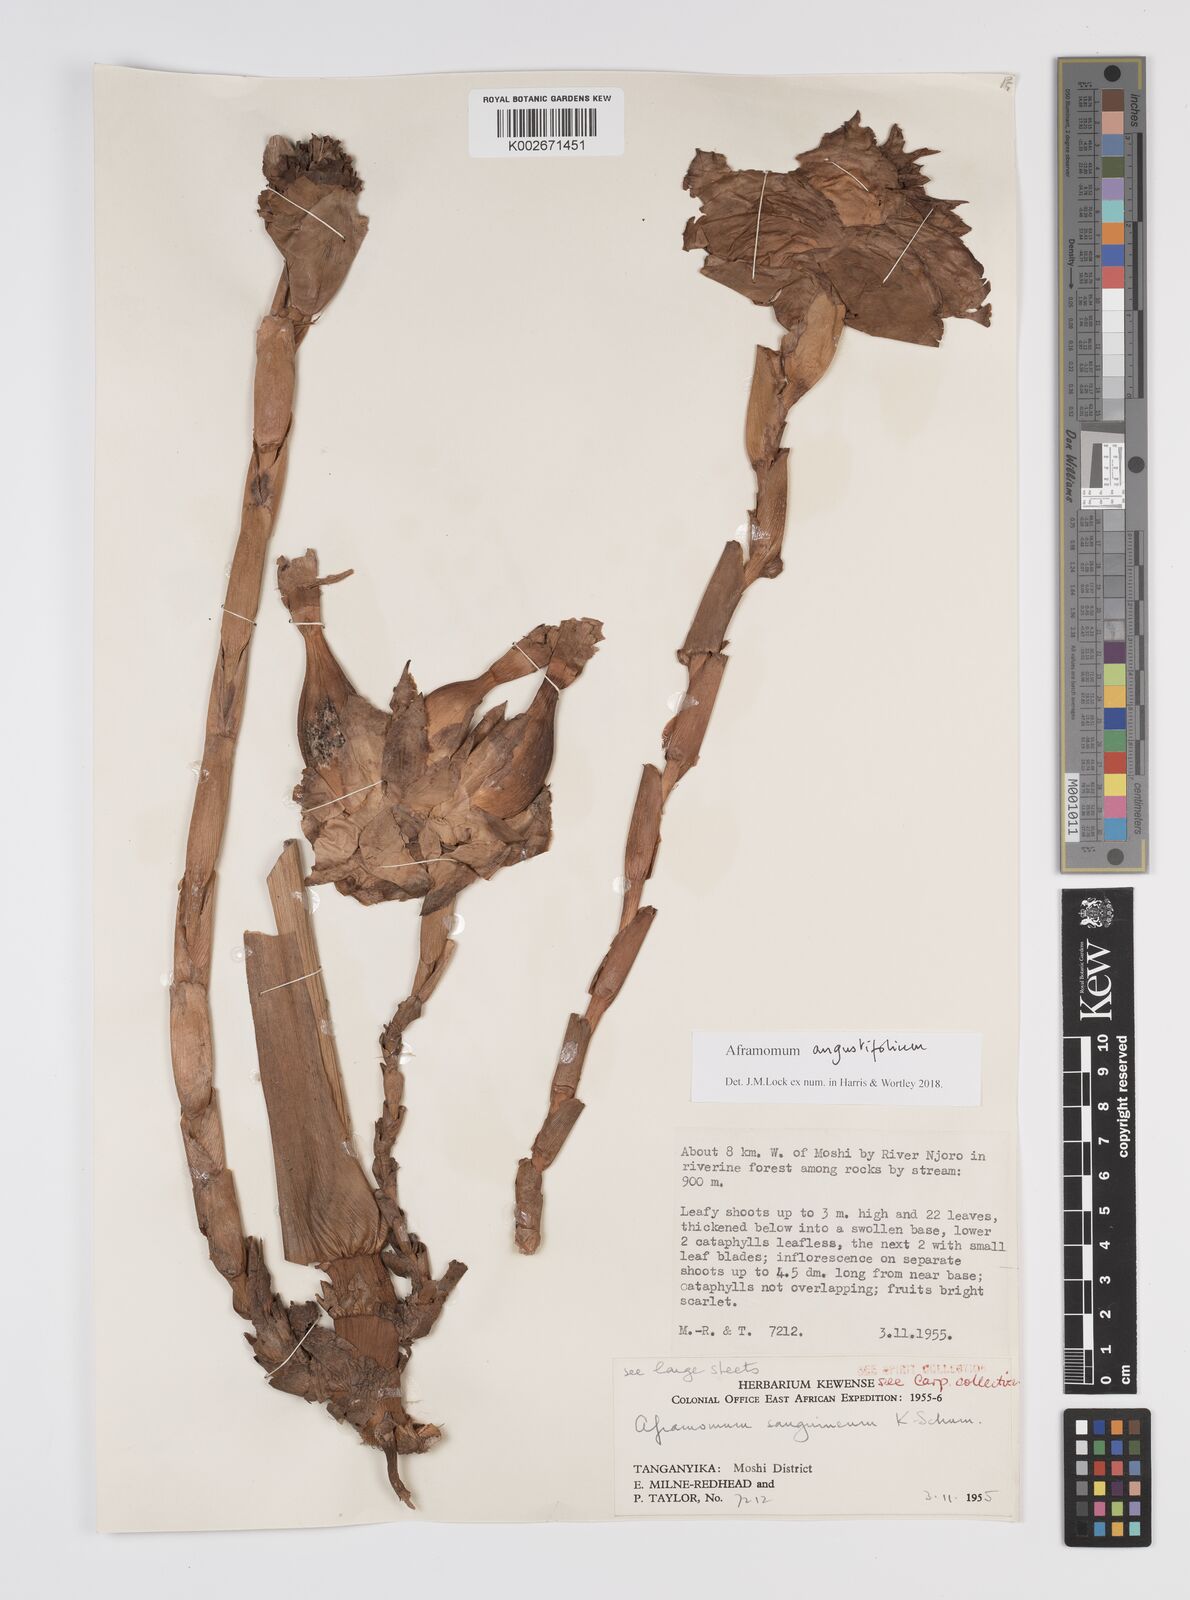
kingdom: Plantae
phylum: Tracheophyta
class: Liliopsida
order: Zingiberales
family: Zingiberaceae
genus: Aframomum
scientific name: Aframomum angustifolium
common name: Guinea grains
